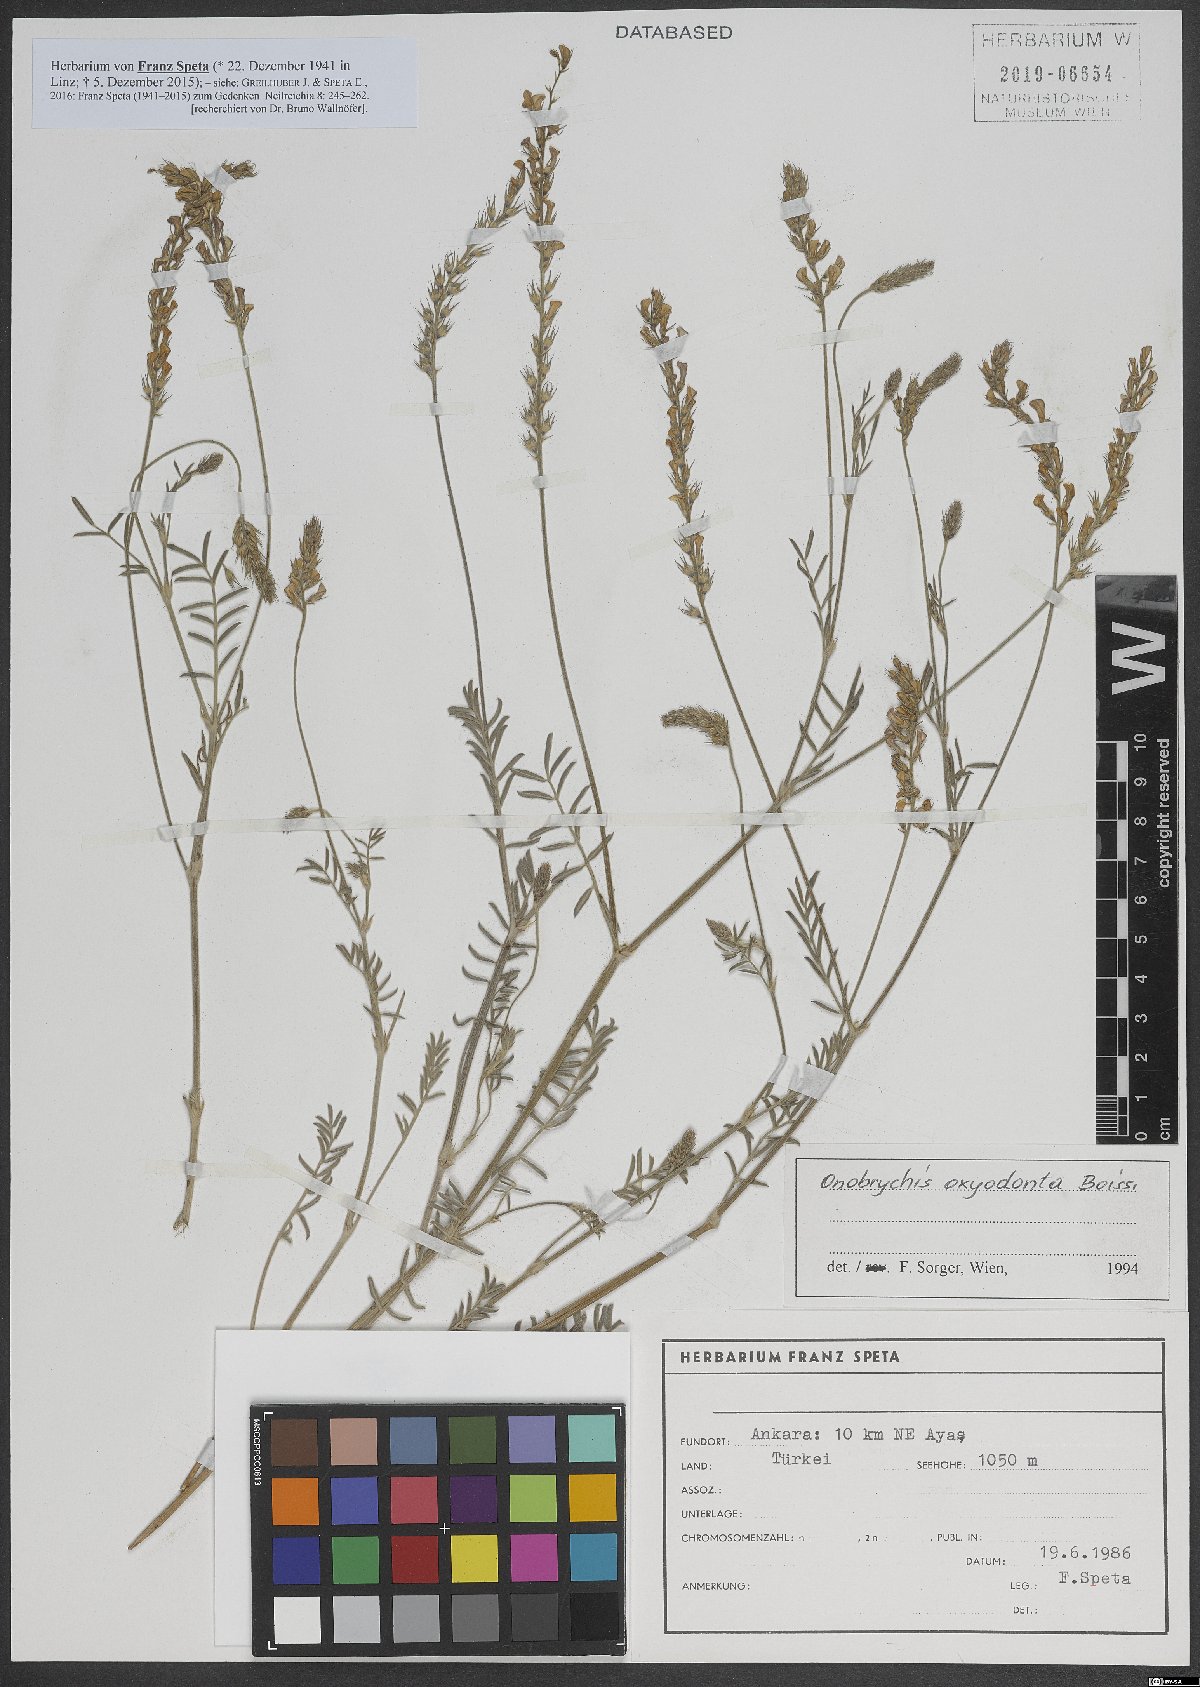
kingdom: Plantae
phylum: Tracheophyta
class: Magnoliopsida
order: Fabales
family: Fabaceae
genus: Onobrychis
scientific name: Onobrychis oxyodonta
